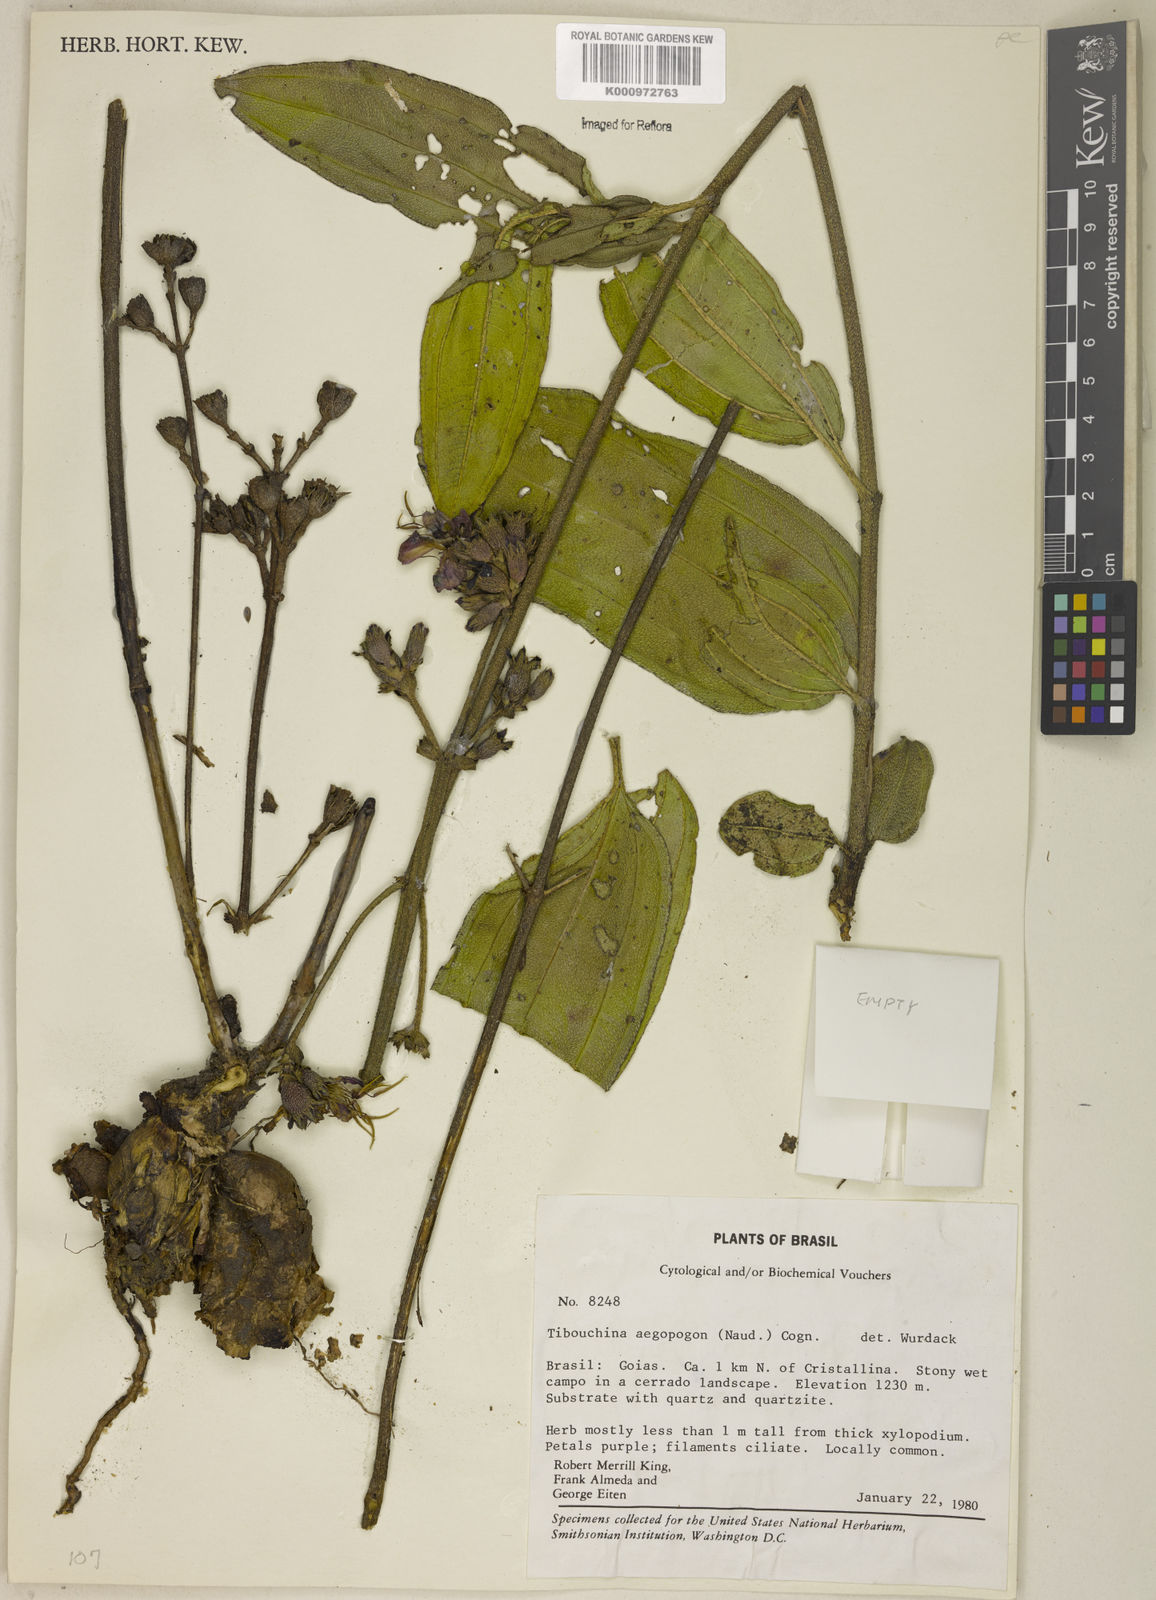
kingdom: Plantae
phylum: Tracheophyta
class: Magnoliopsida
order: Myrtales
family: Melastomataceae
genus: Pleroma
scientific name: Pleroma aegopogon
